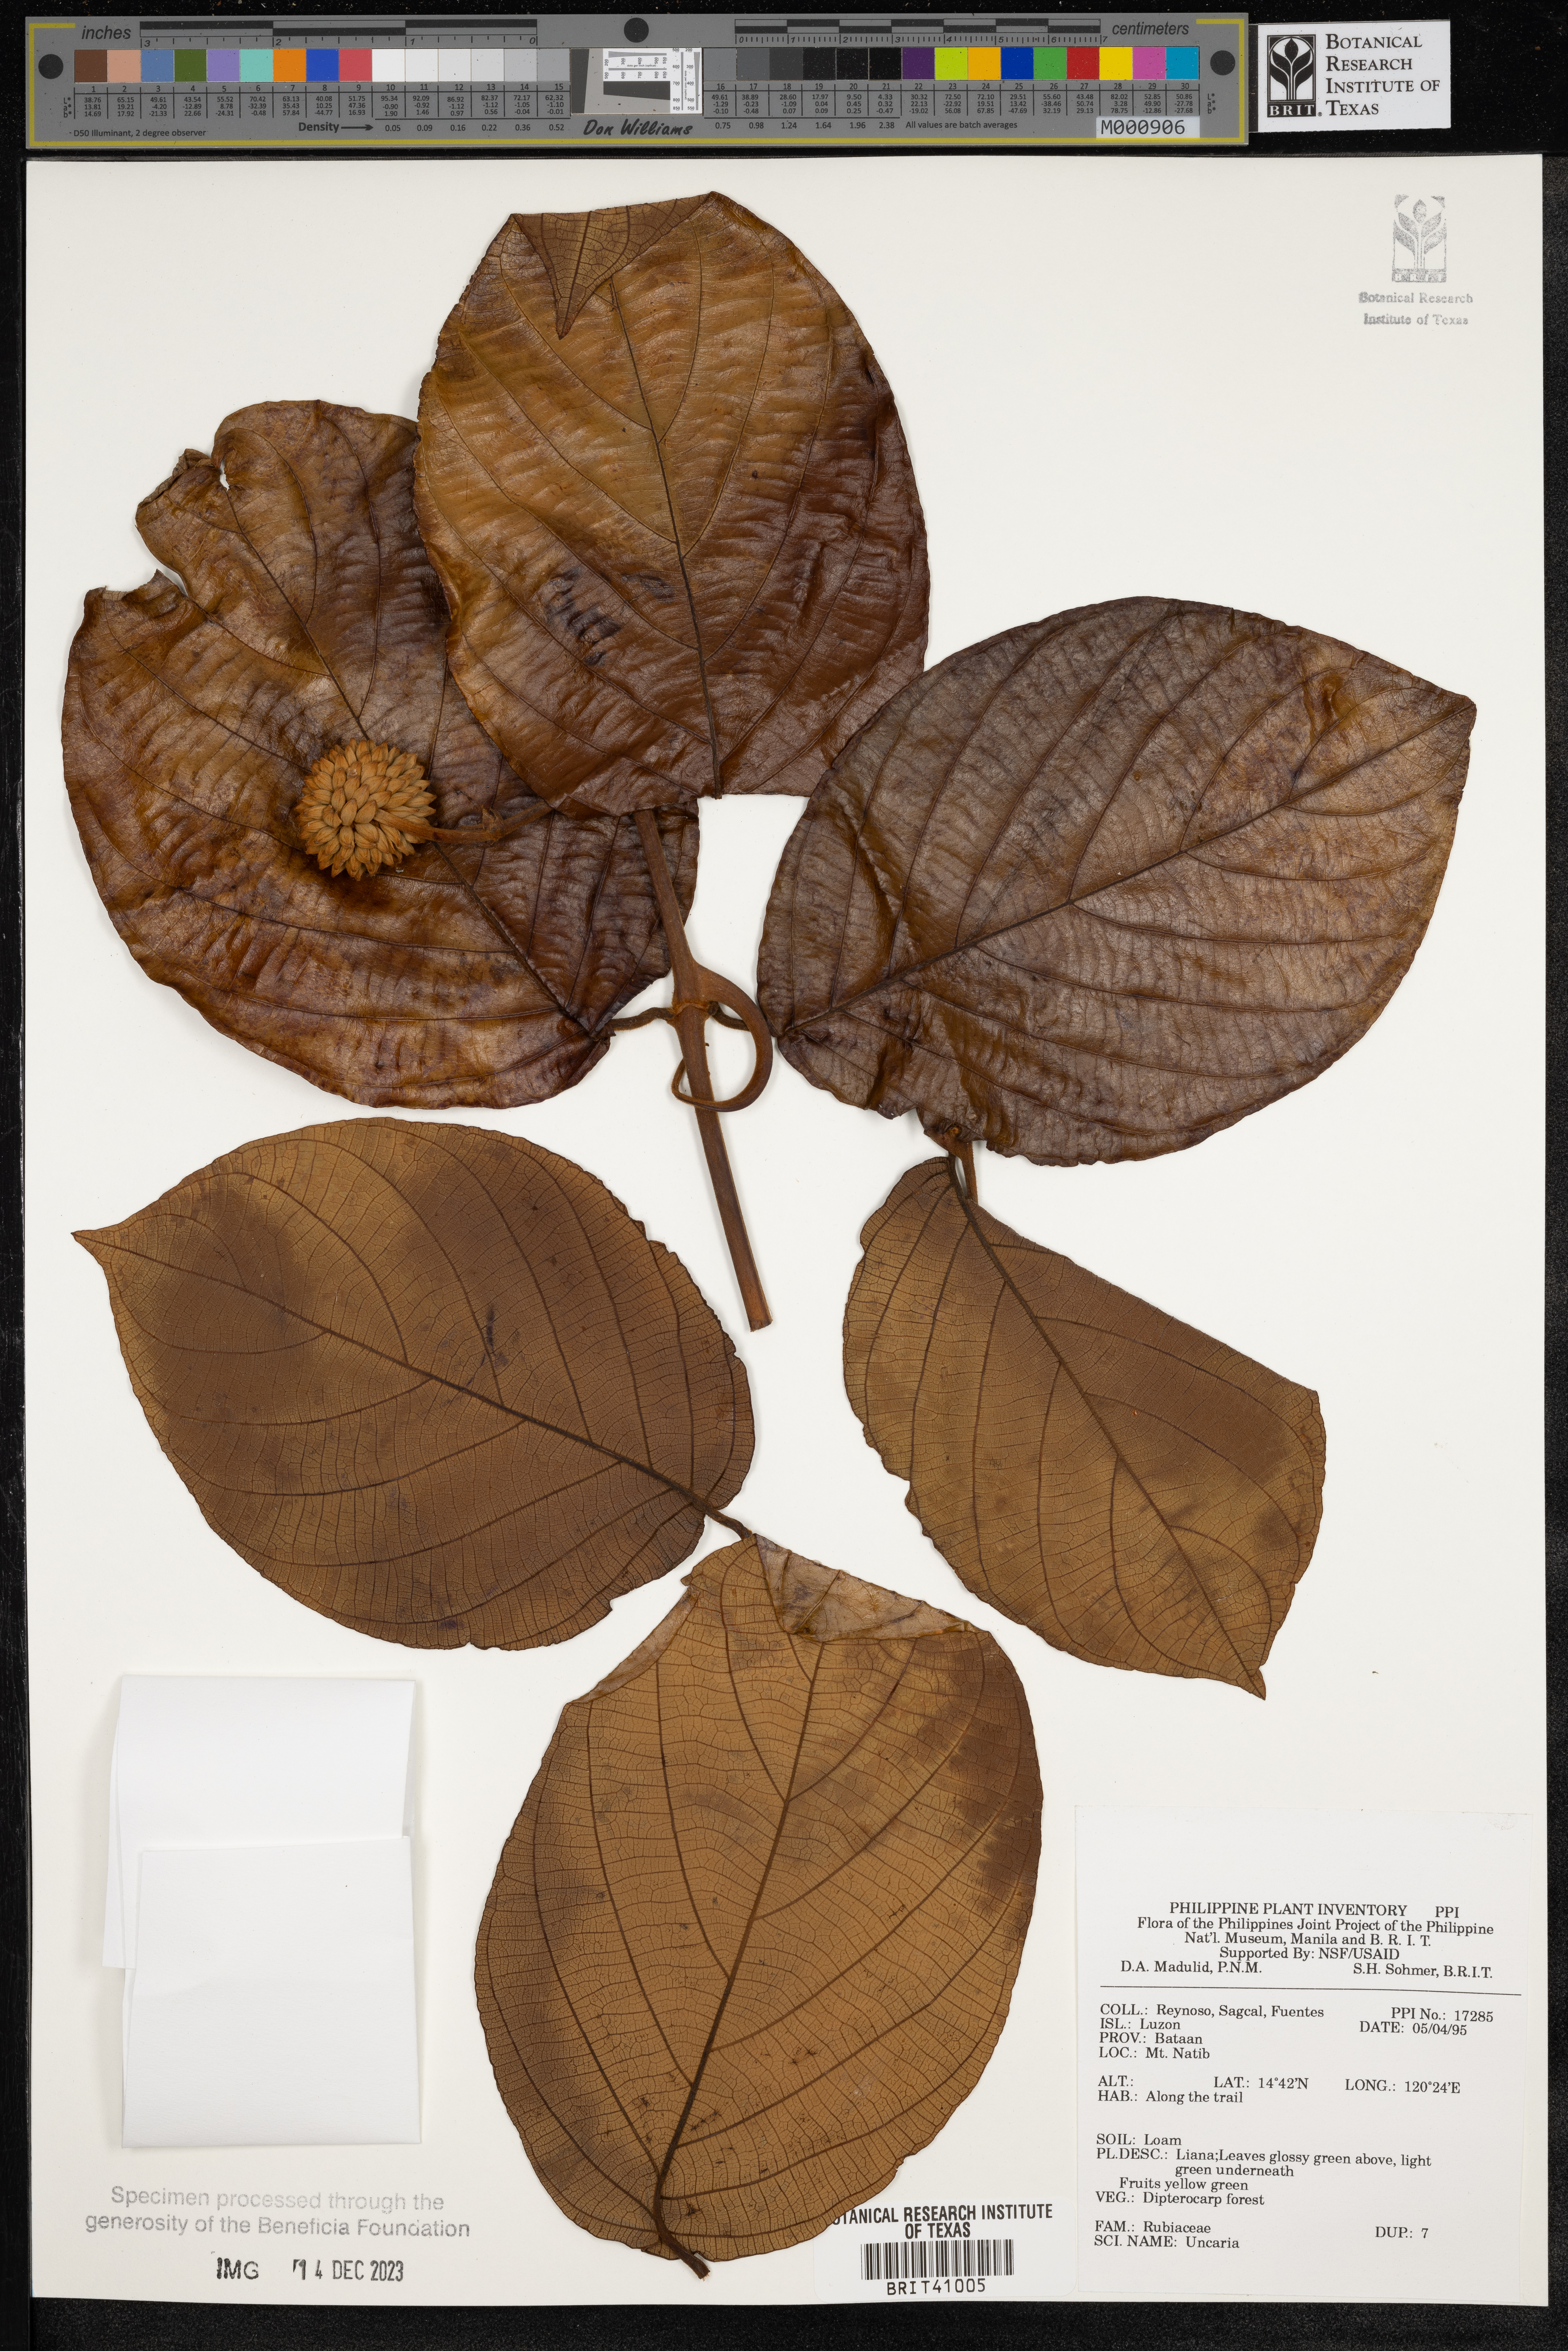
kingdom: Plantae
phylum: Tracheophyta
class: Magnoliopsida
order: Gentianales
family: Rubiaceae
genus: Uncaria
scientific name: Uncaria
